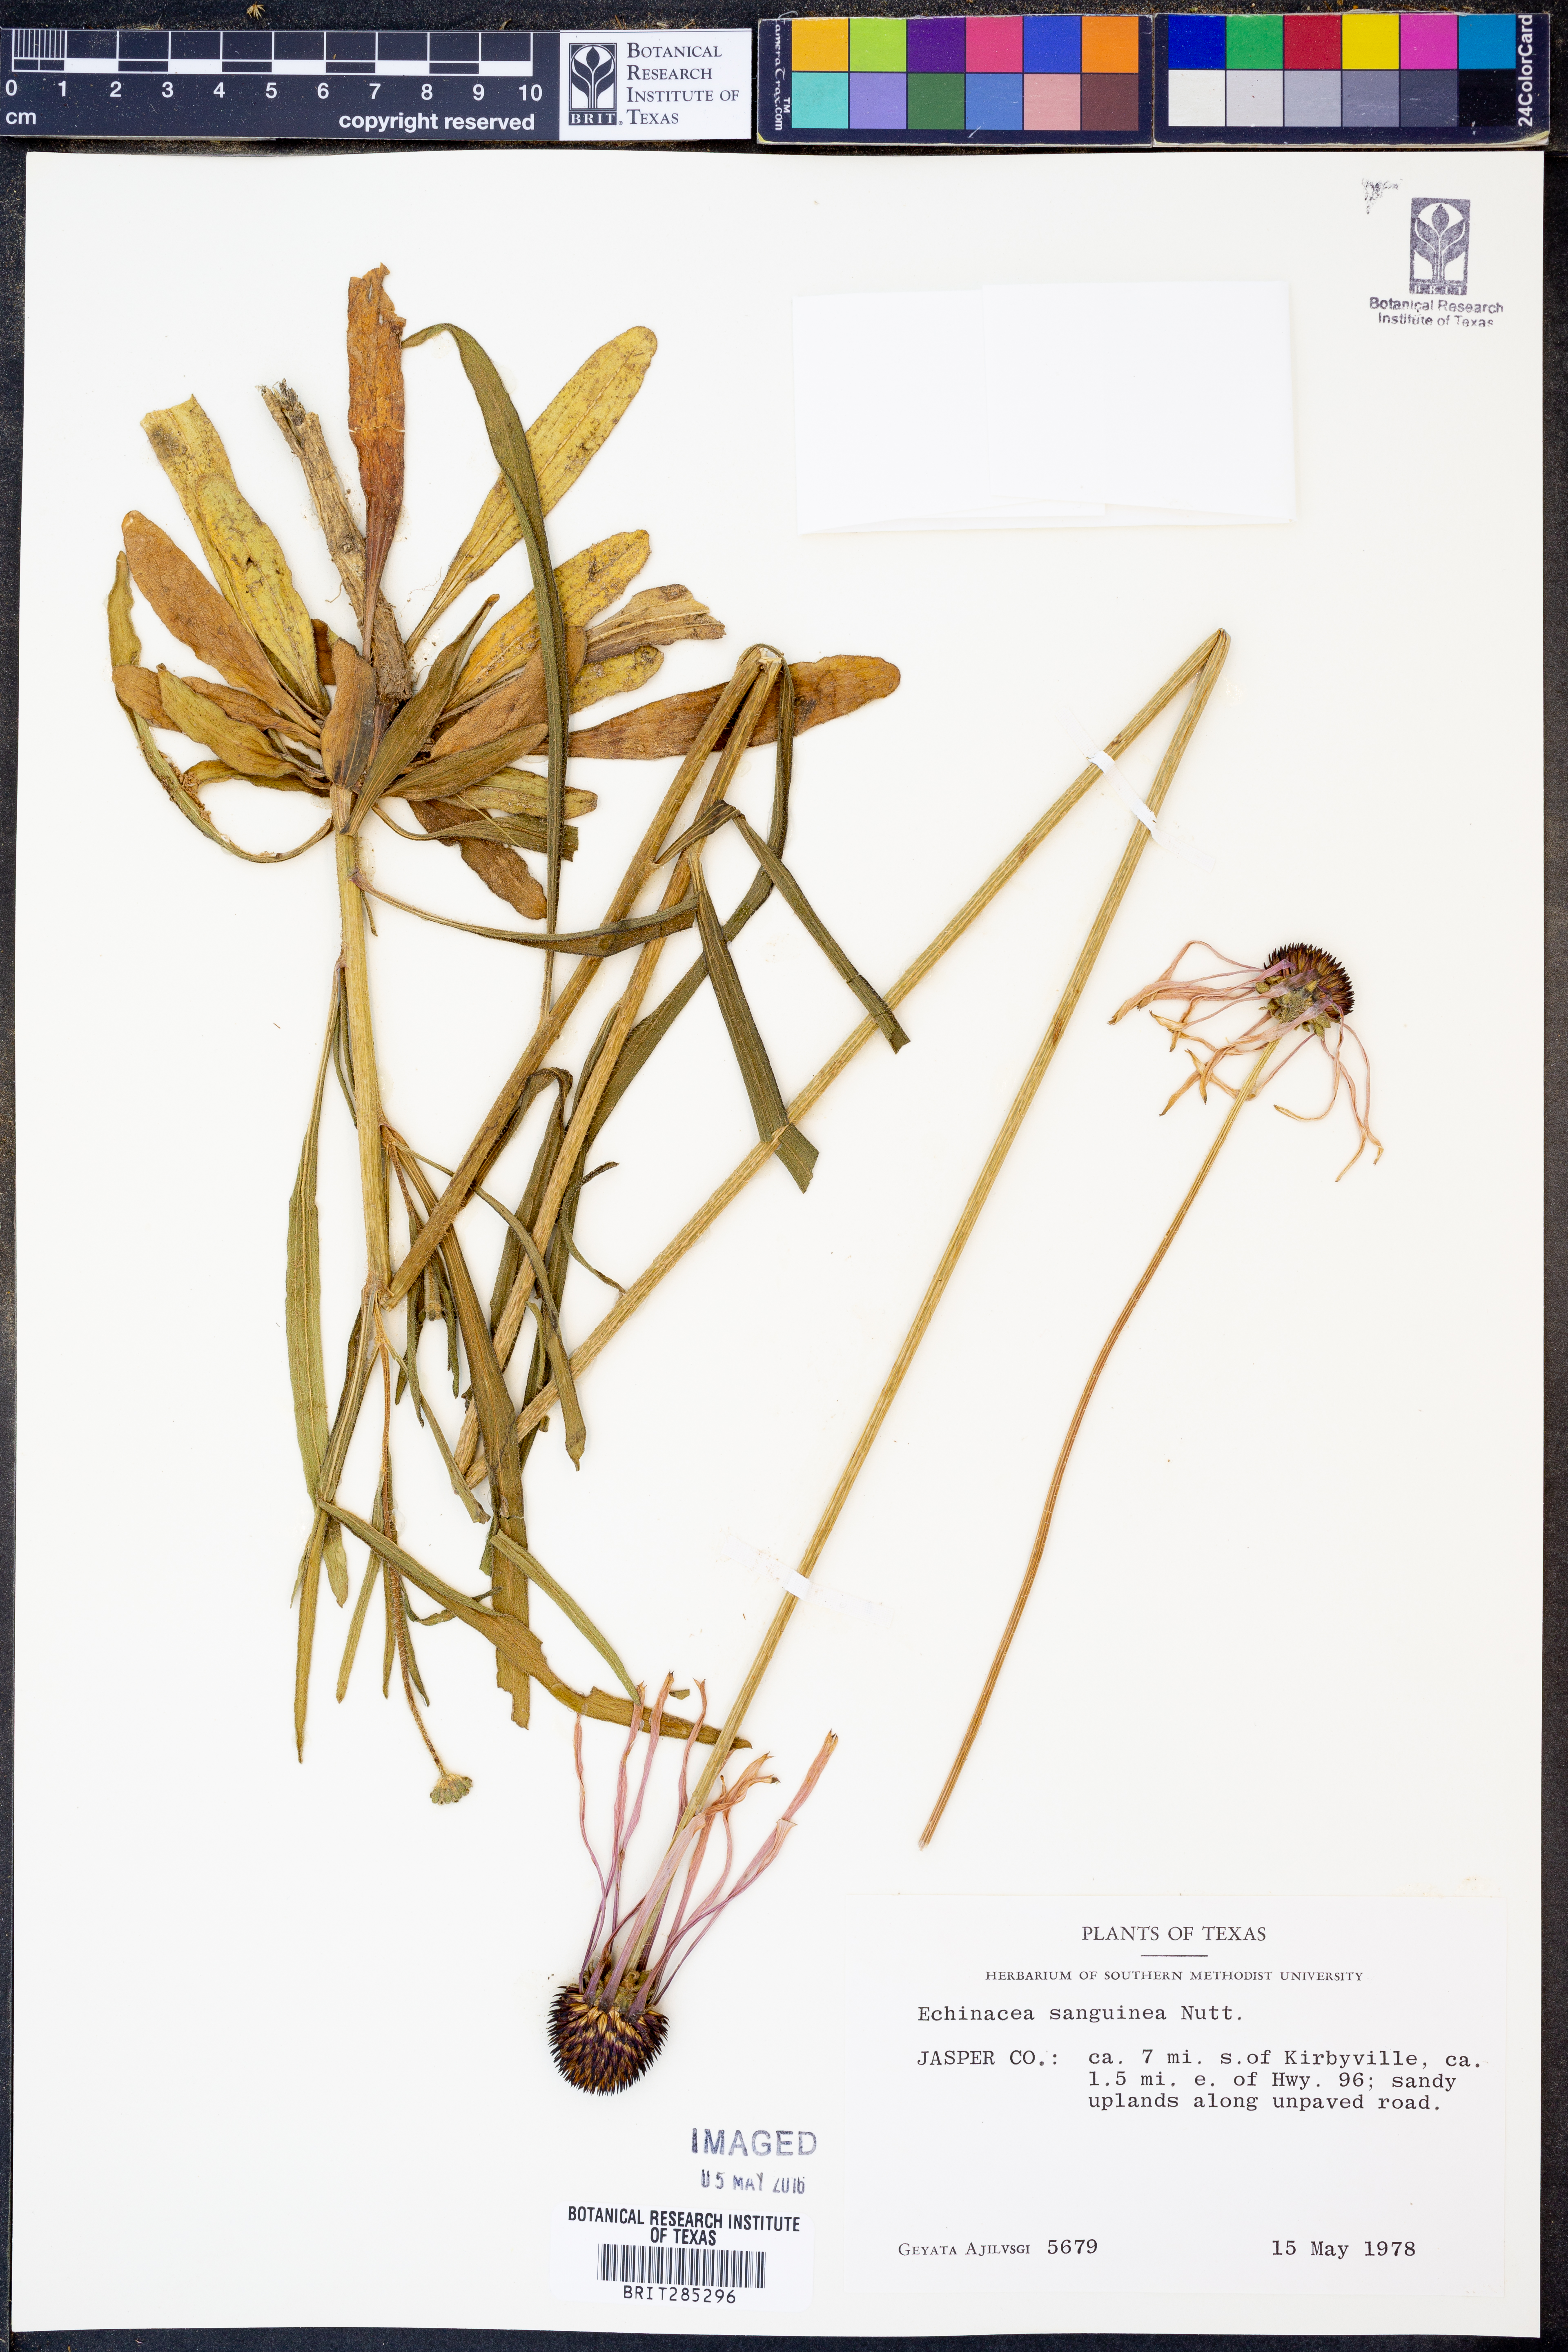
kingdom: Plantae
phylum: Tracheophyta
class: Magnoliopsida
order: Asterales
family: Asteraceae
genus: Echinacea
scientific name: Echinacea sanguinea
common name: Sanguine purple-coneflower
